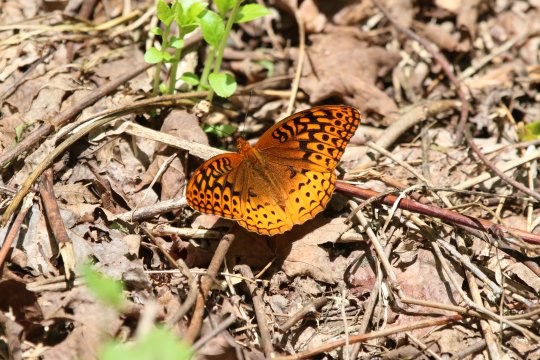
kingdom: Animalia
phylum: Arthropoda
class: Insecta
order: Lepidoptera
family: Nymphalidae
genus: Speyeria
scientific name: Speyeria cybele
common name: Great Spangled Fritillary
